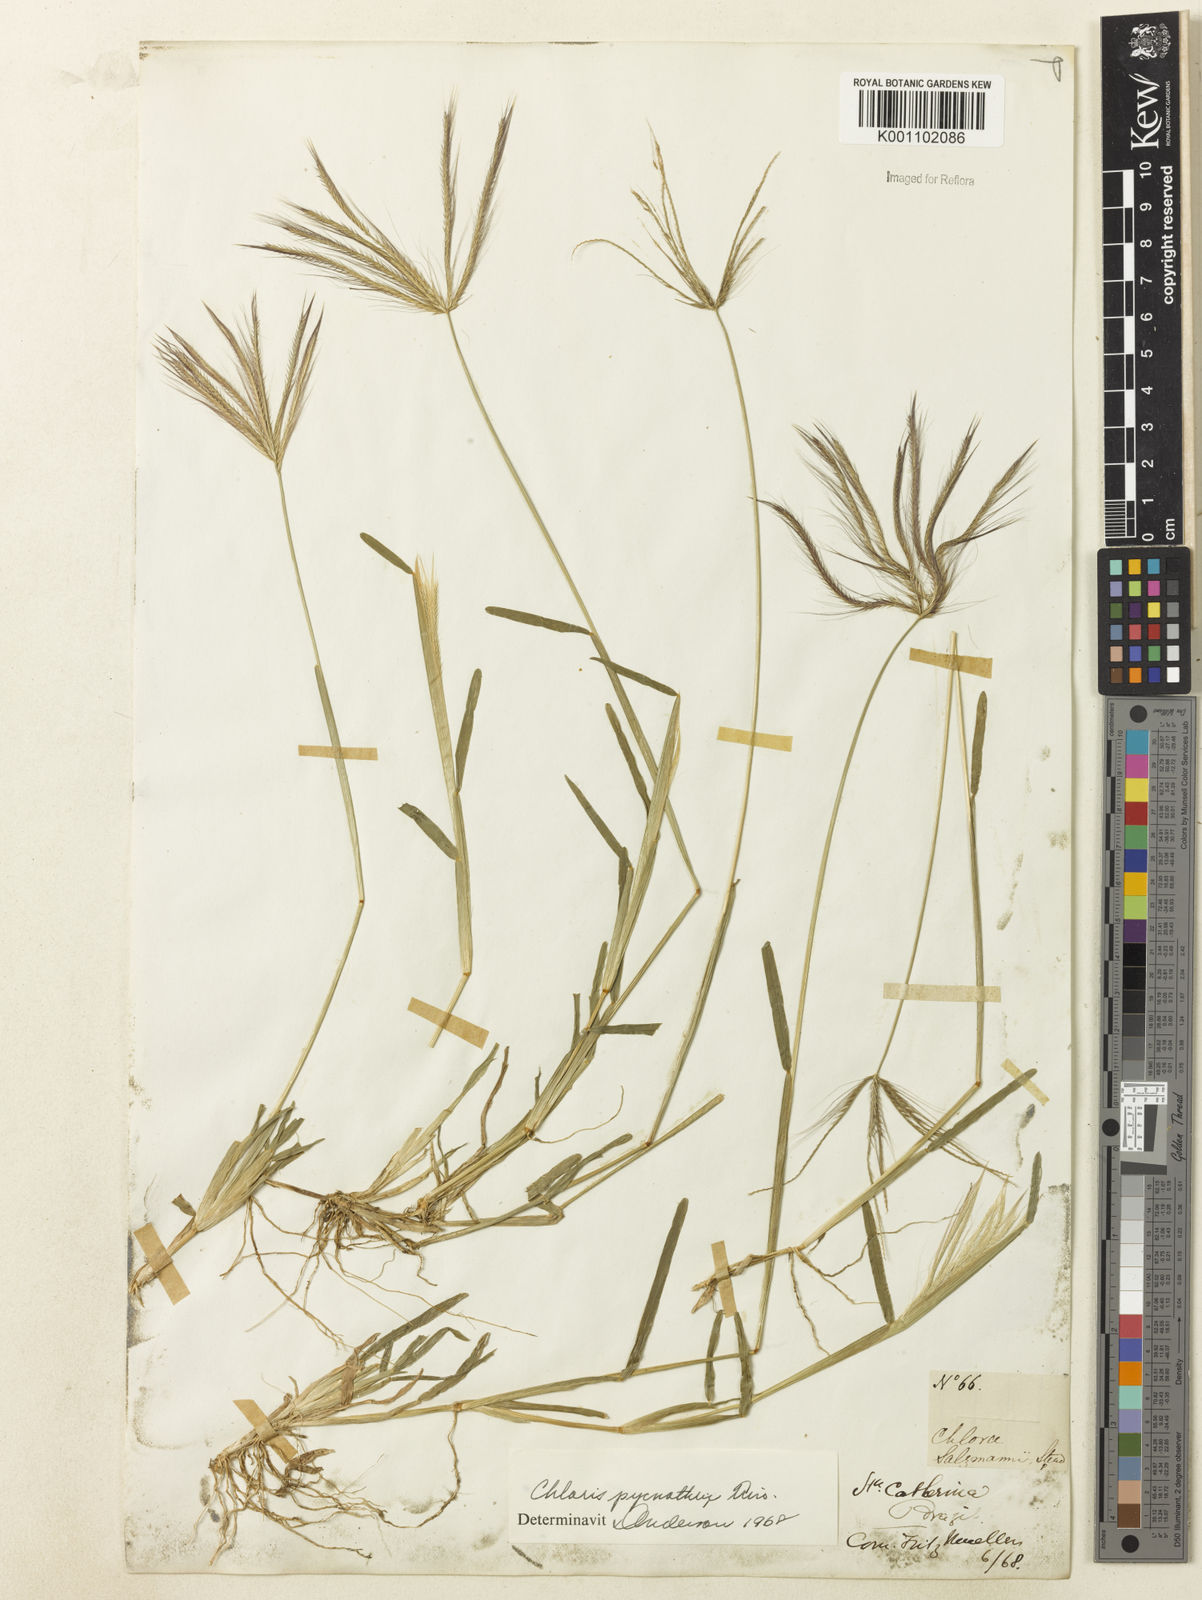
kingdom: Plantae
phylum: Tracheophyta
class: Liliopsida
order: Poales
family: Poaceae
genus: Chloris
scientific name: Chloris pycnothrix
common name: Spiderweb chloris
